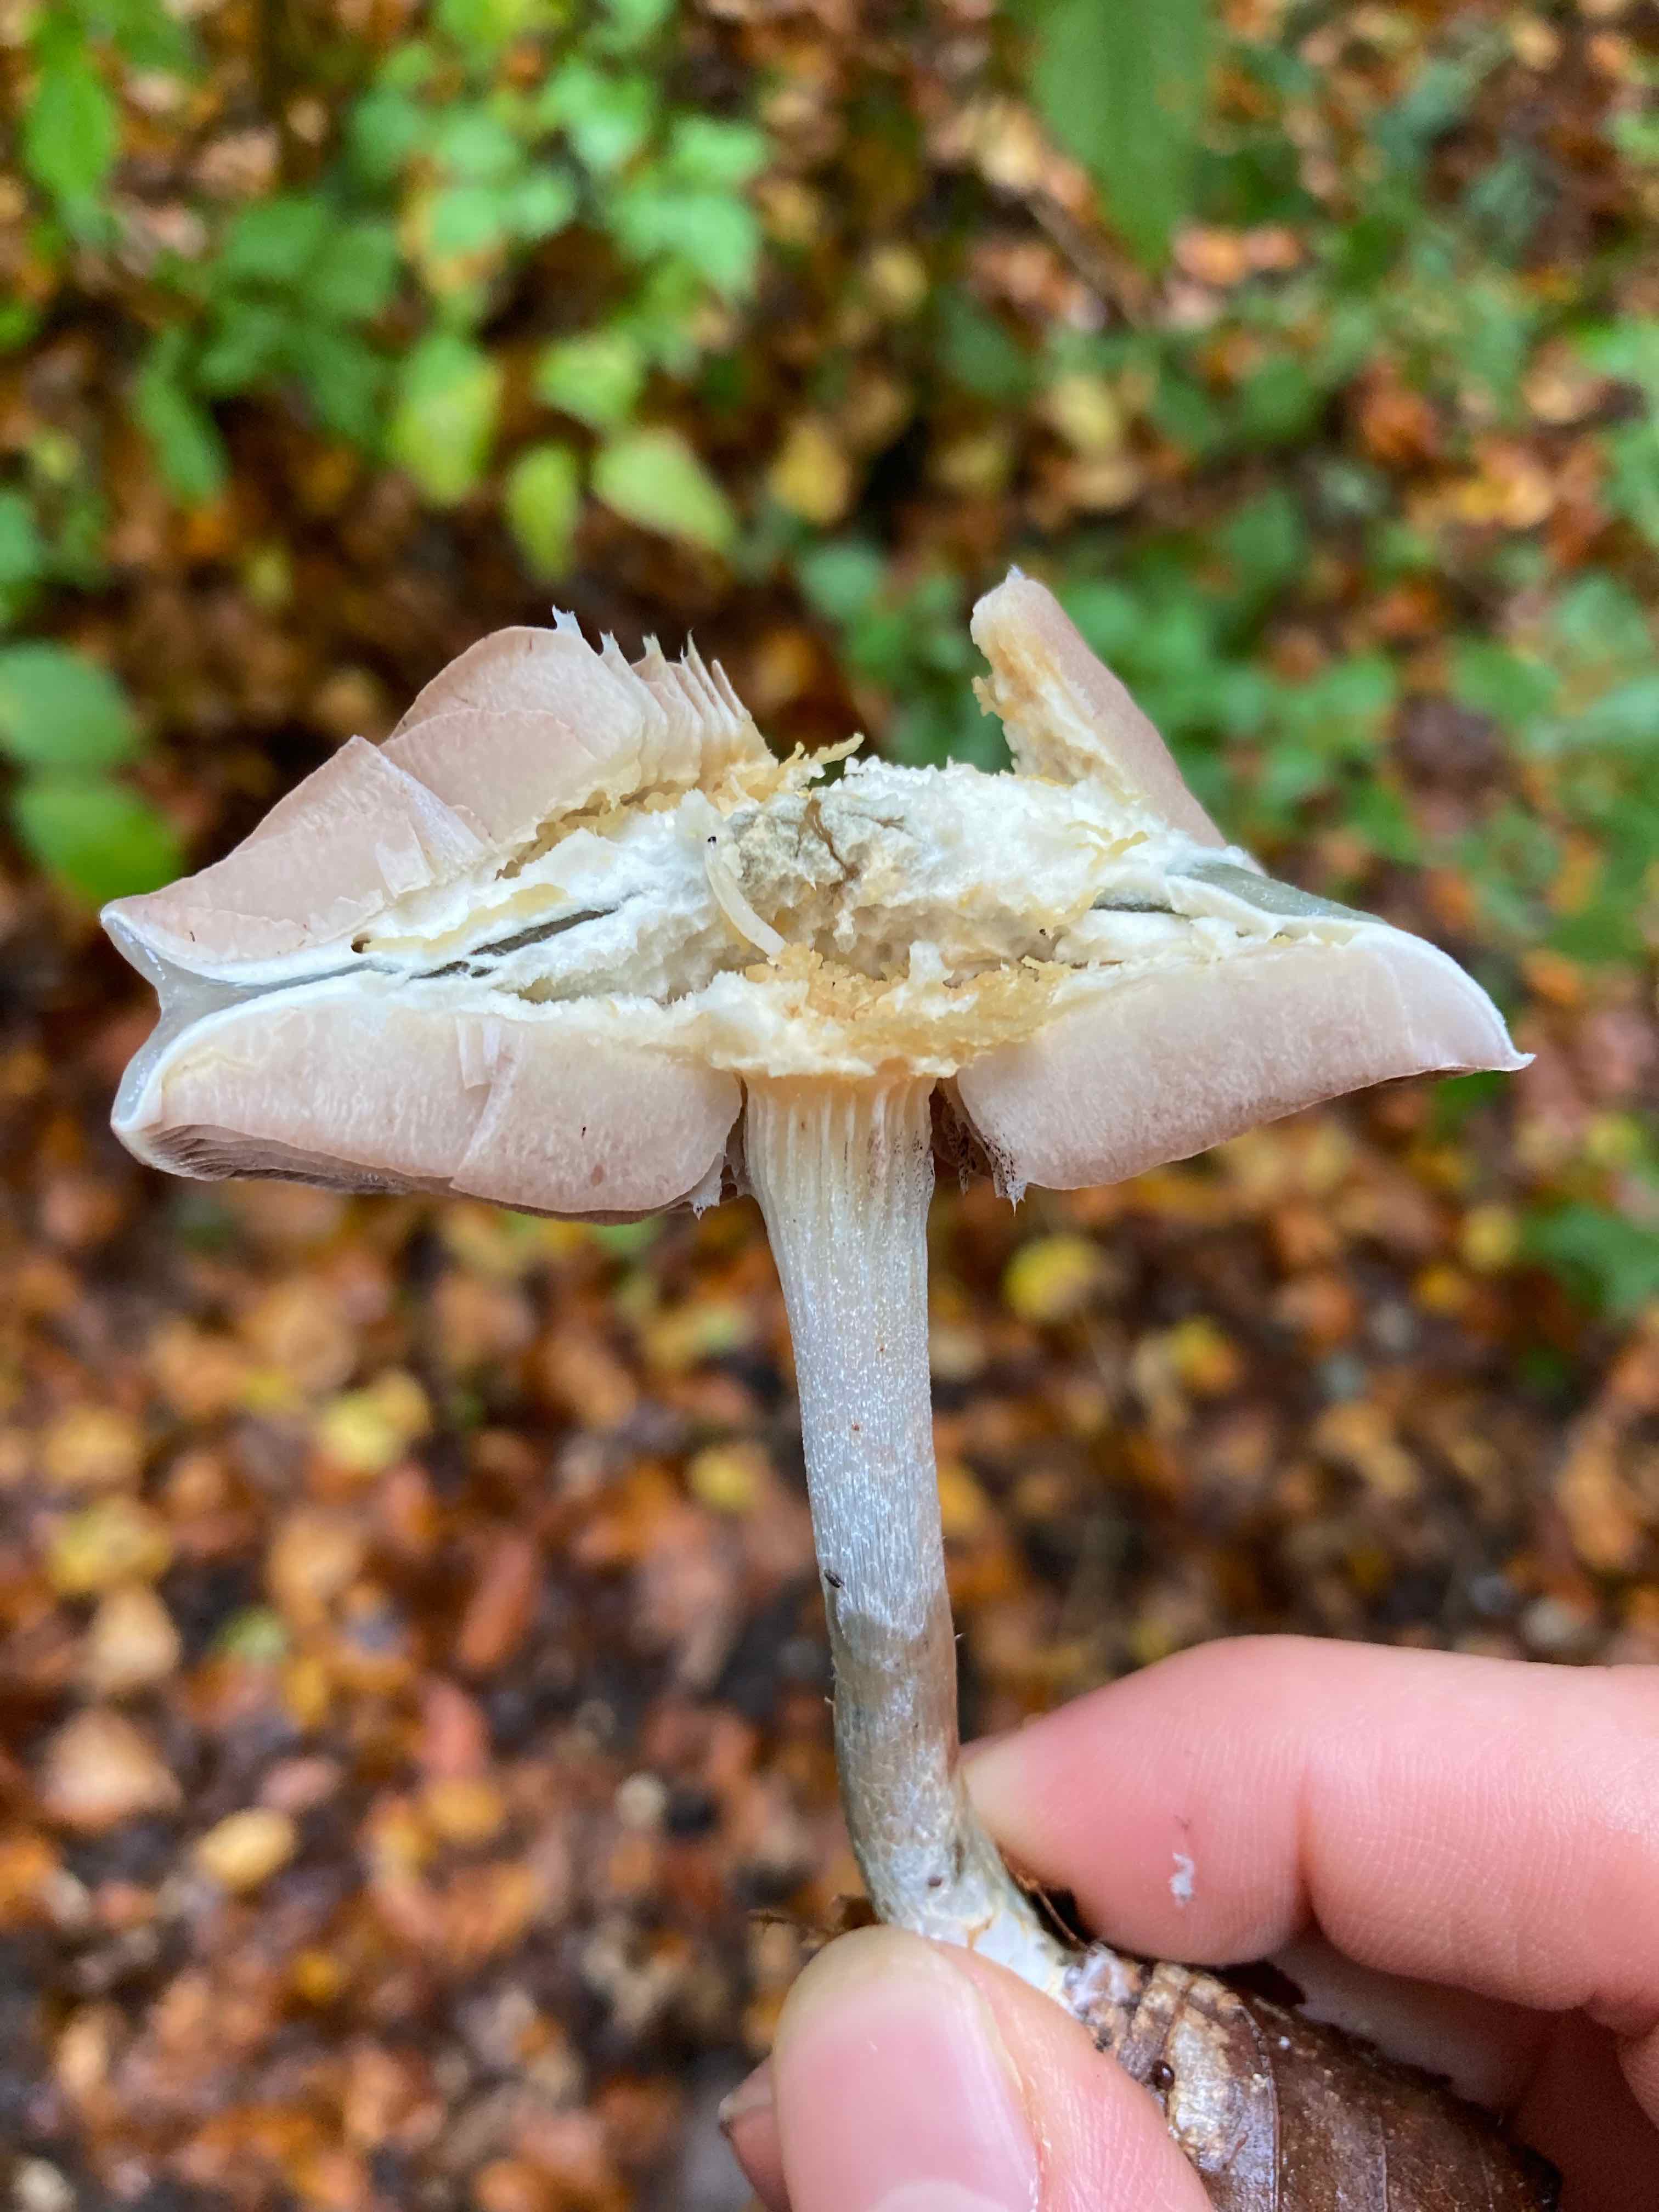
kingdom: Fungi
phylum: Basidiomycota
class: Agaricomycetes
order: Agaricales
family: Strophariaceae
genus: Stropharia
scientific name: Stropharia cyanea
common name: blågrøn bredblad
